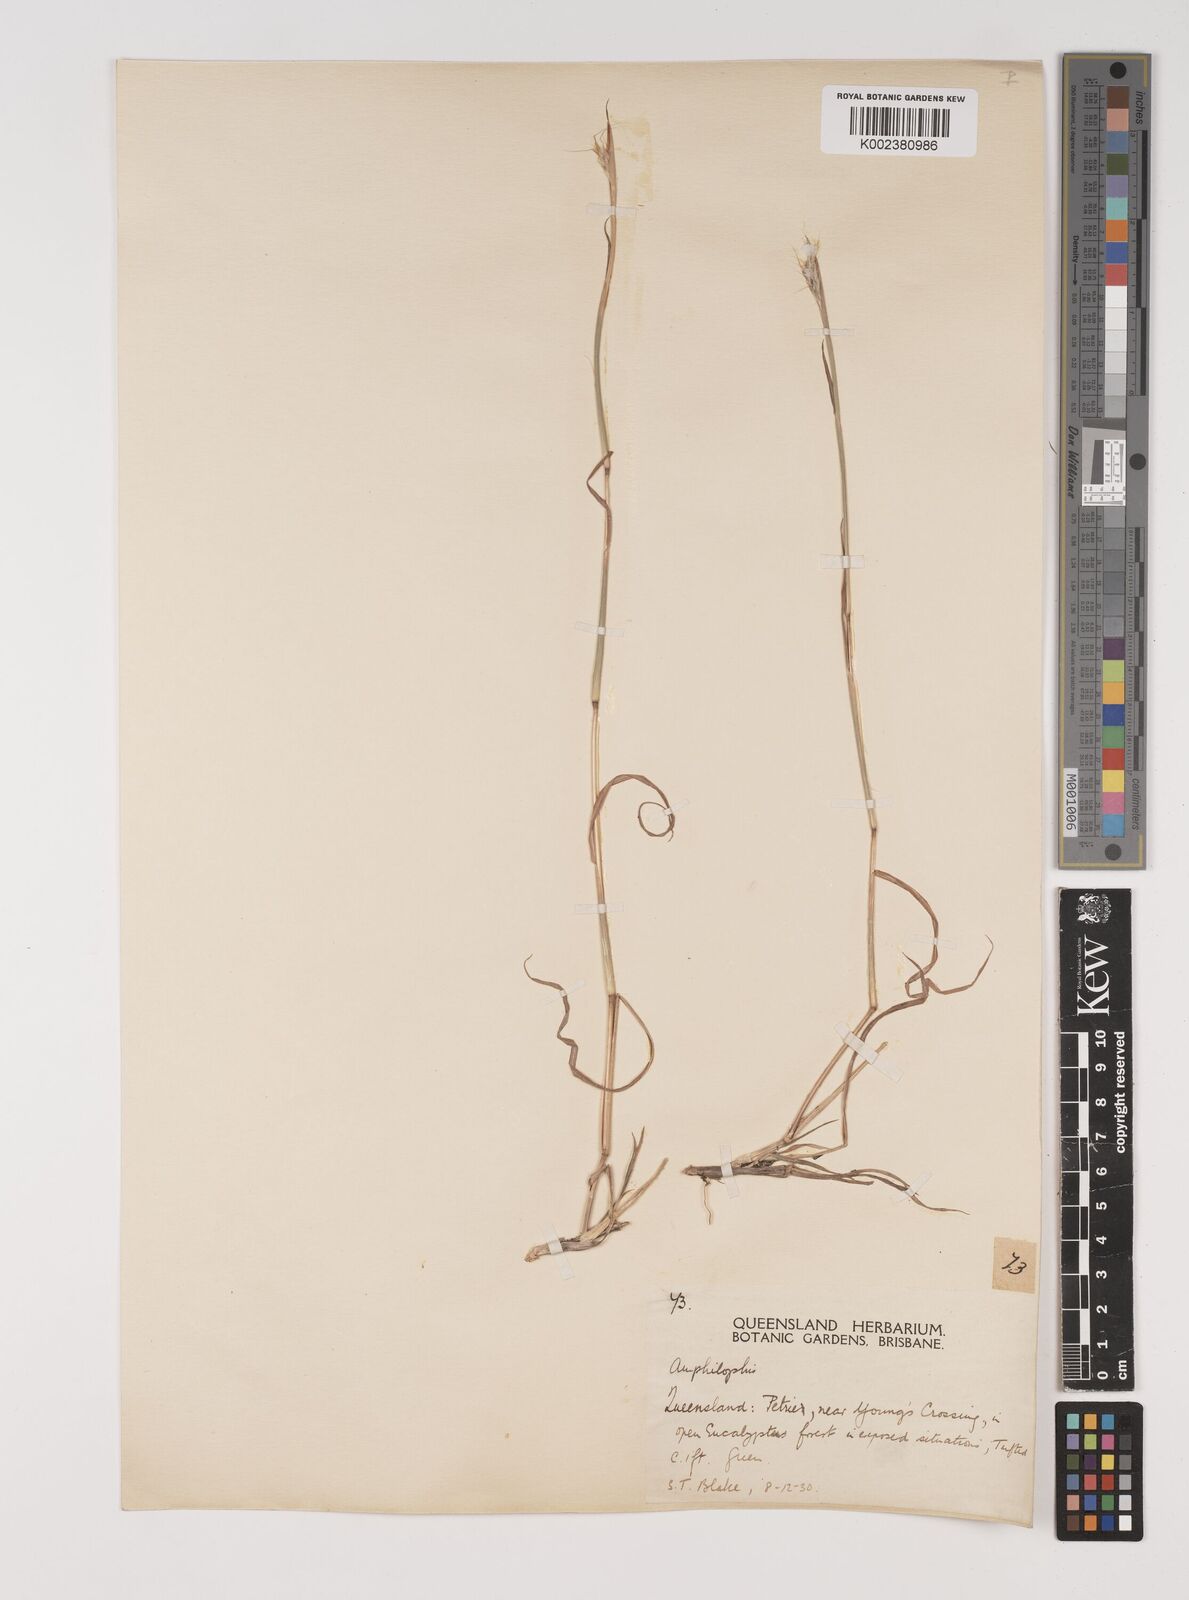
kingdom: Plantae
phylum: Tracheophyta
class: Liliopsida
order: Poales
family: Poaceae
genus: Bothriochloa
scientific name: Bothriochloa decipiens
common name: Pitted-bluegrass
